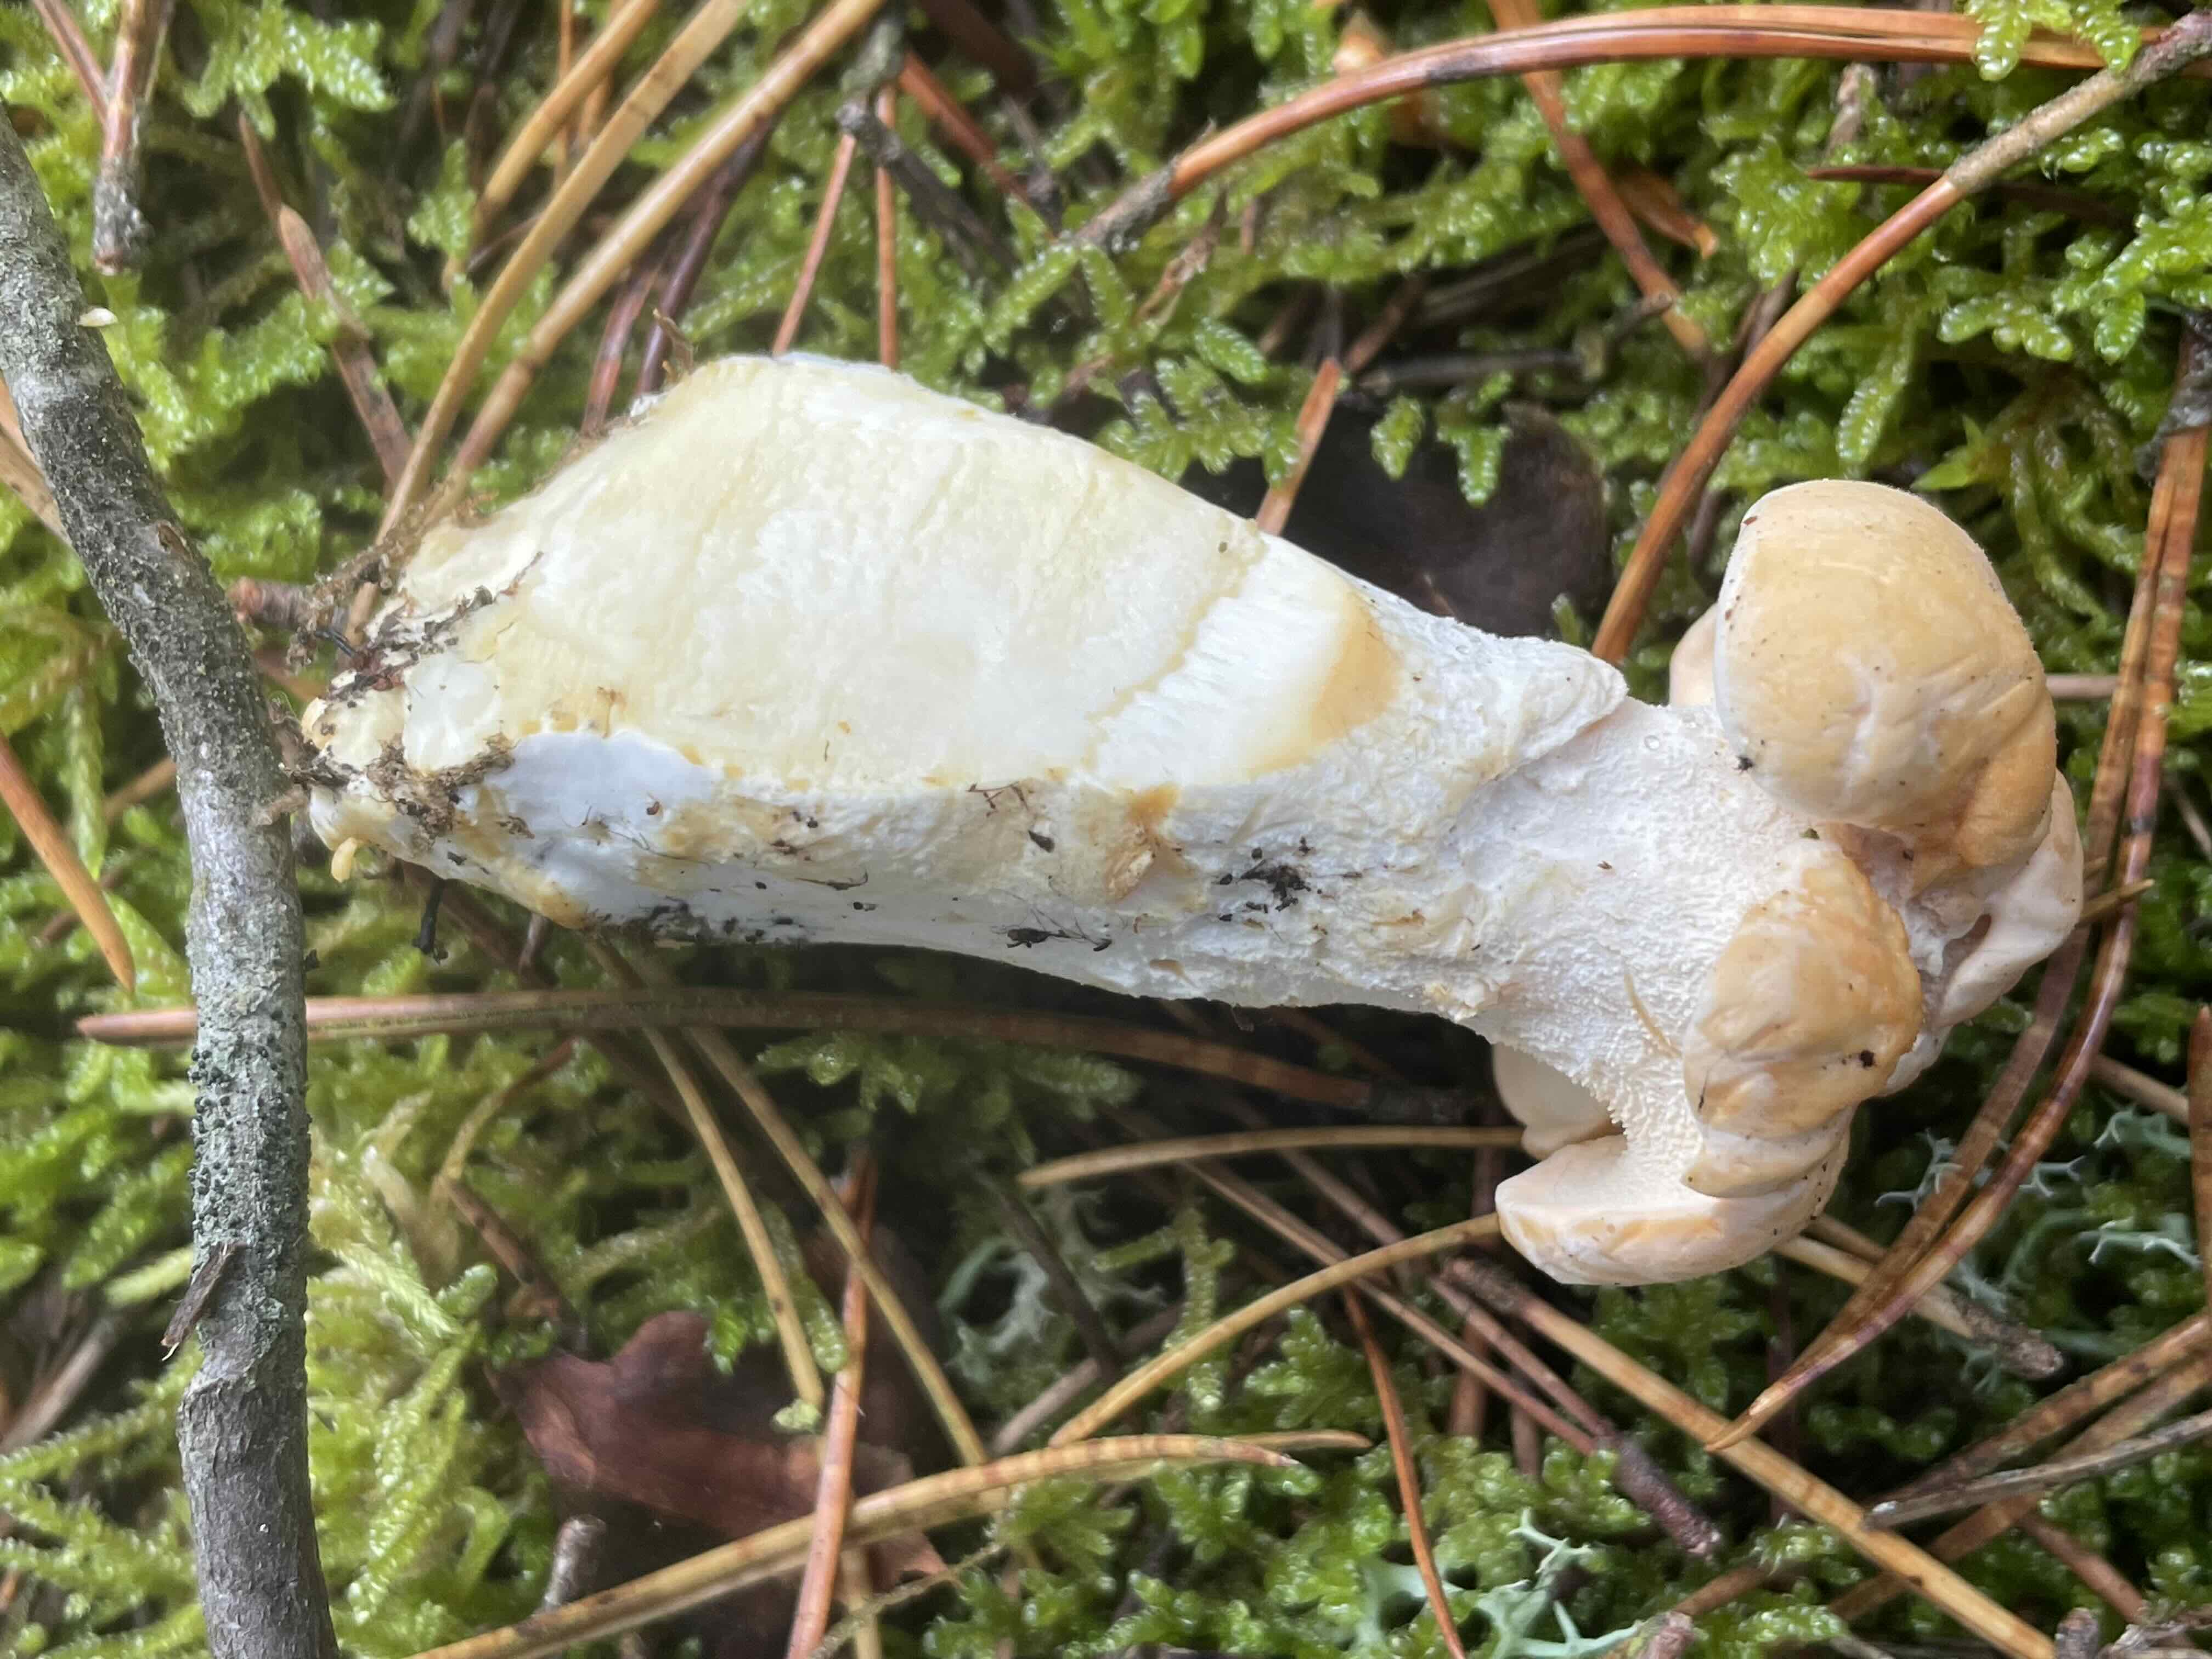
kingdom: Fungi
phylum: Basidiomycota
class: Agaricomycetes
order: Cantharellales
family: Hydnaceae
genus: Hydnum
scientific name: Hydnum
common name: pigsvamp
